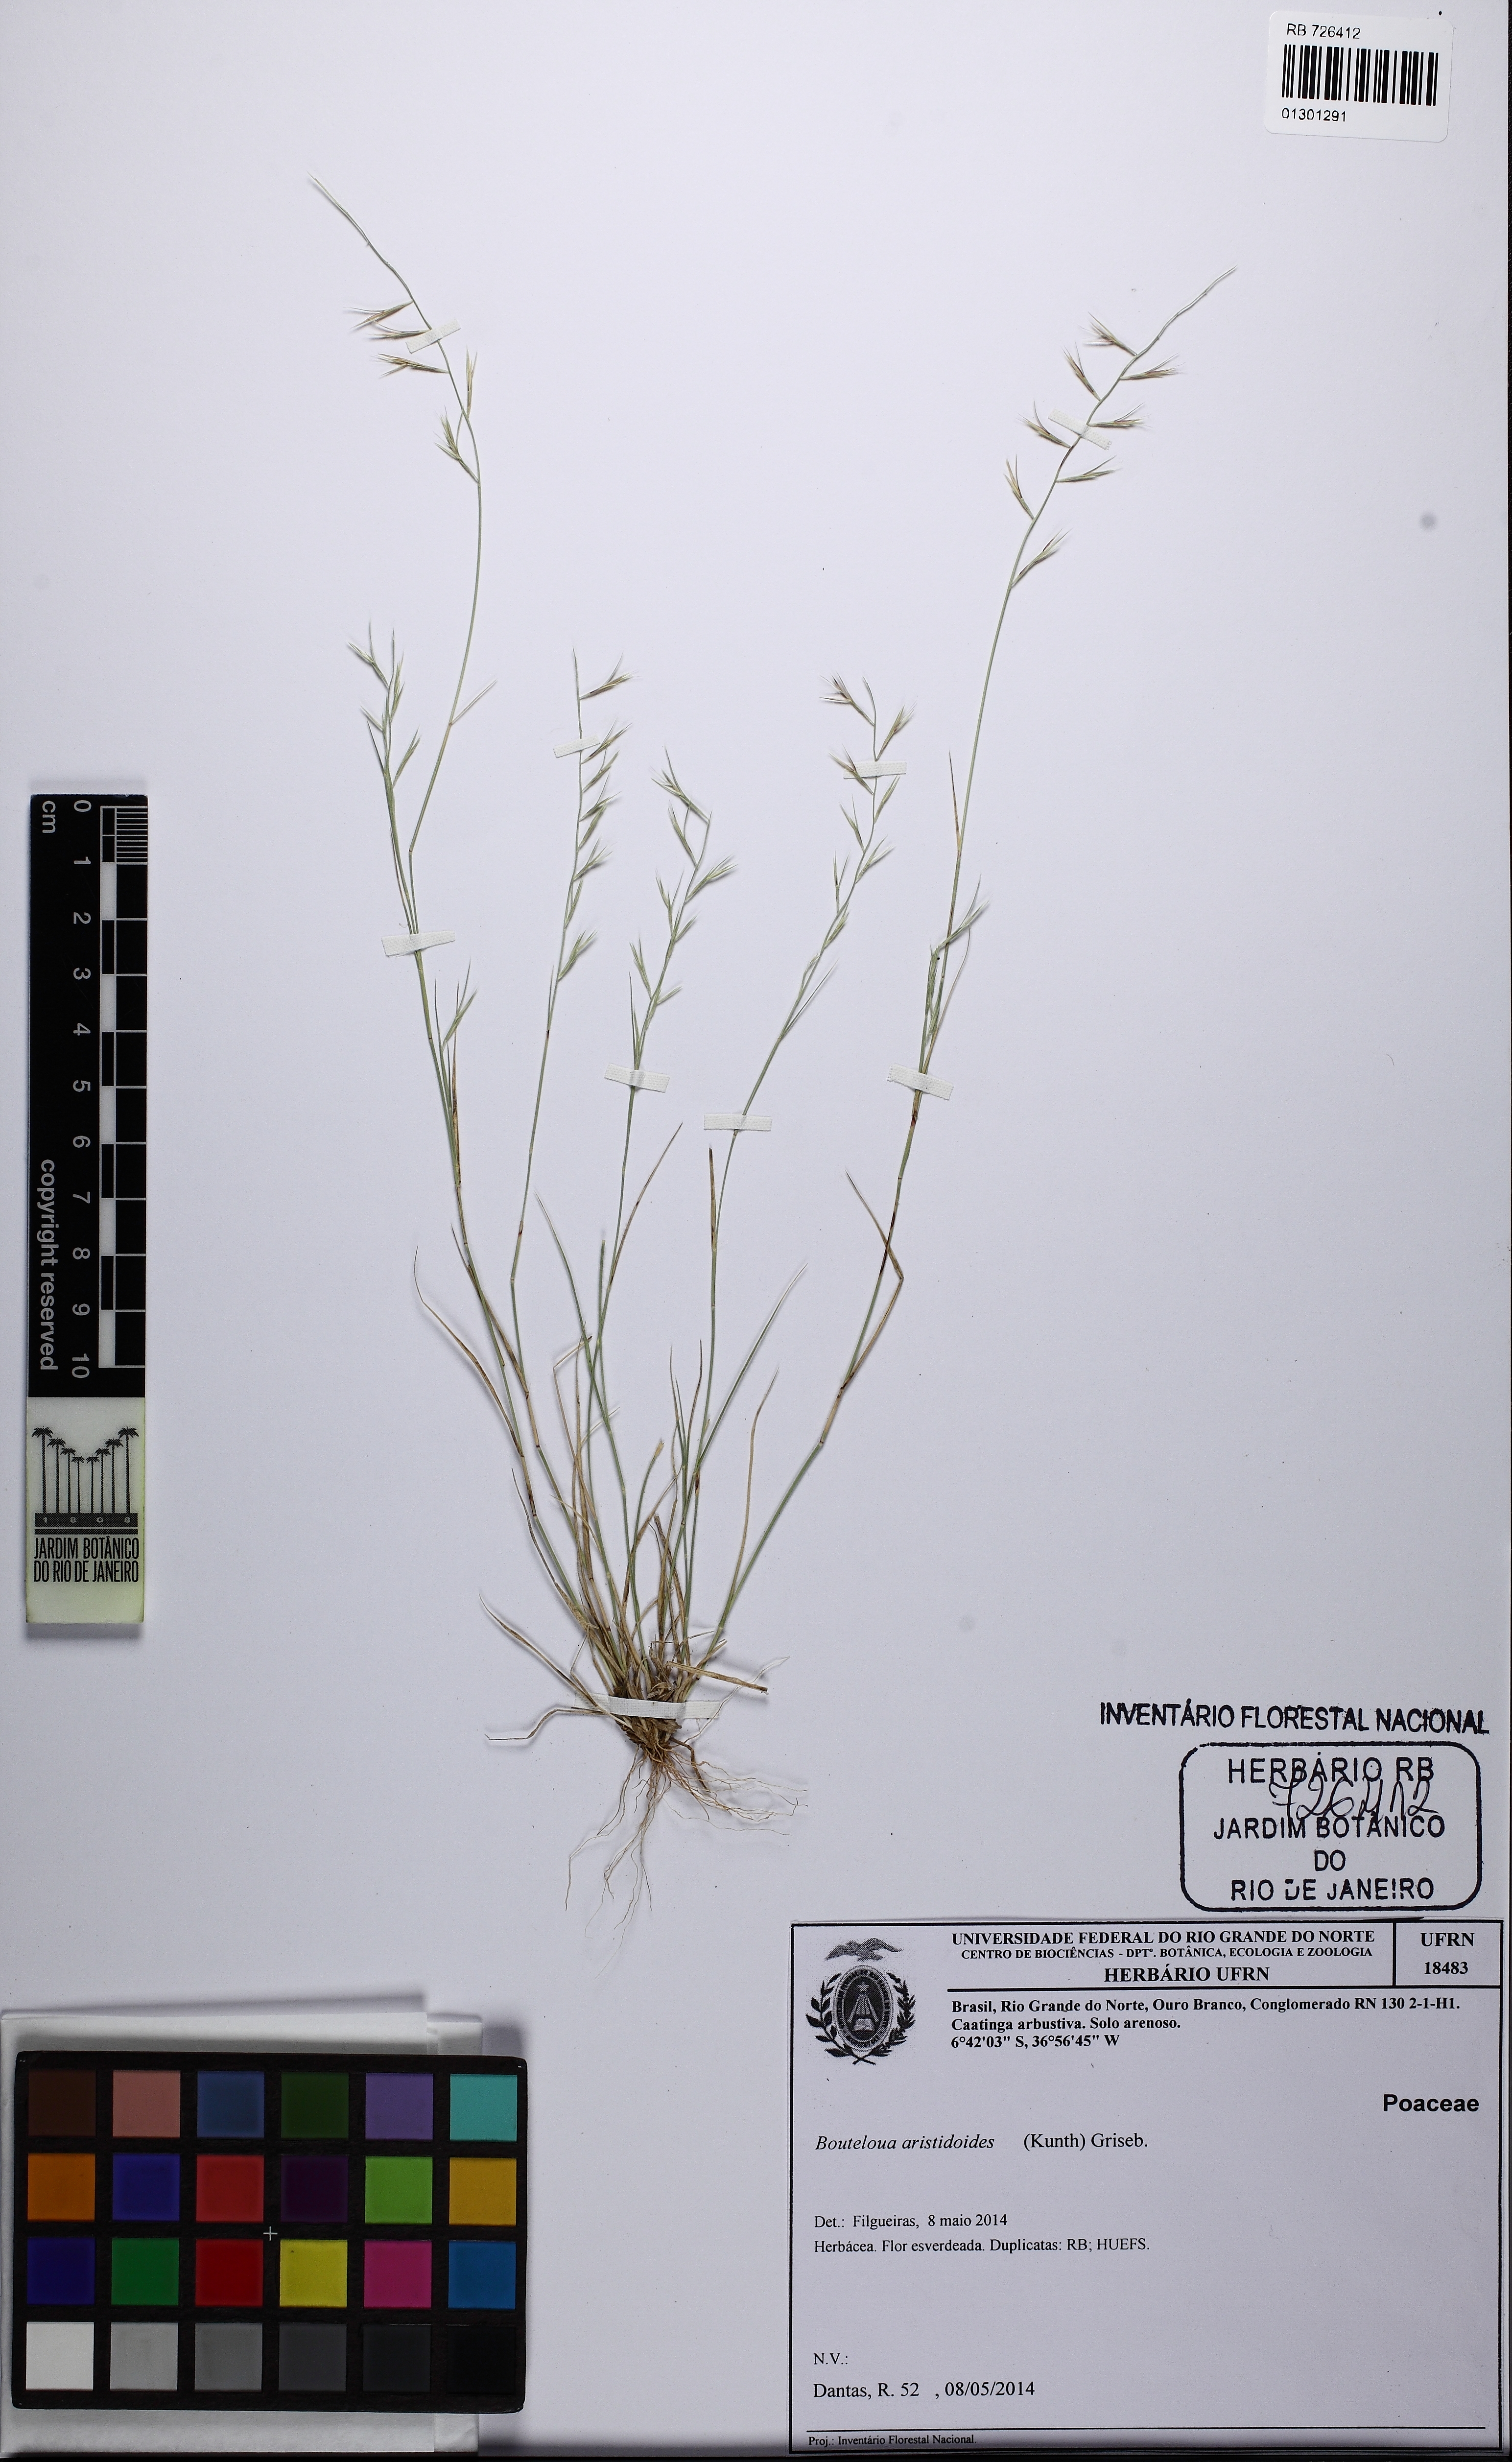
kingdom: Plantae
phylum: Tracheophyta
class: Liliopsida
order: Poales
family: Poaceae
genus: Bouteloua
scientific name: Bouteloua aristidoides
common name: Needle grama
